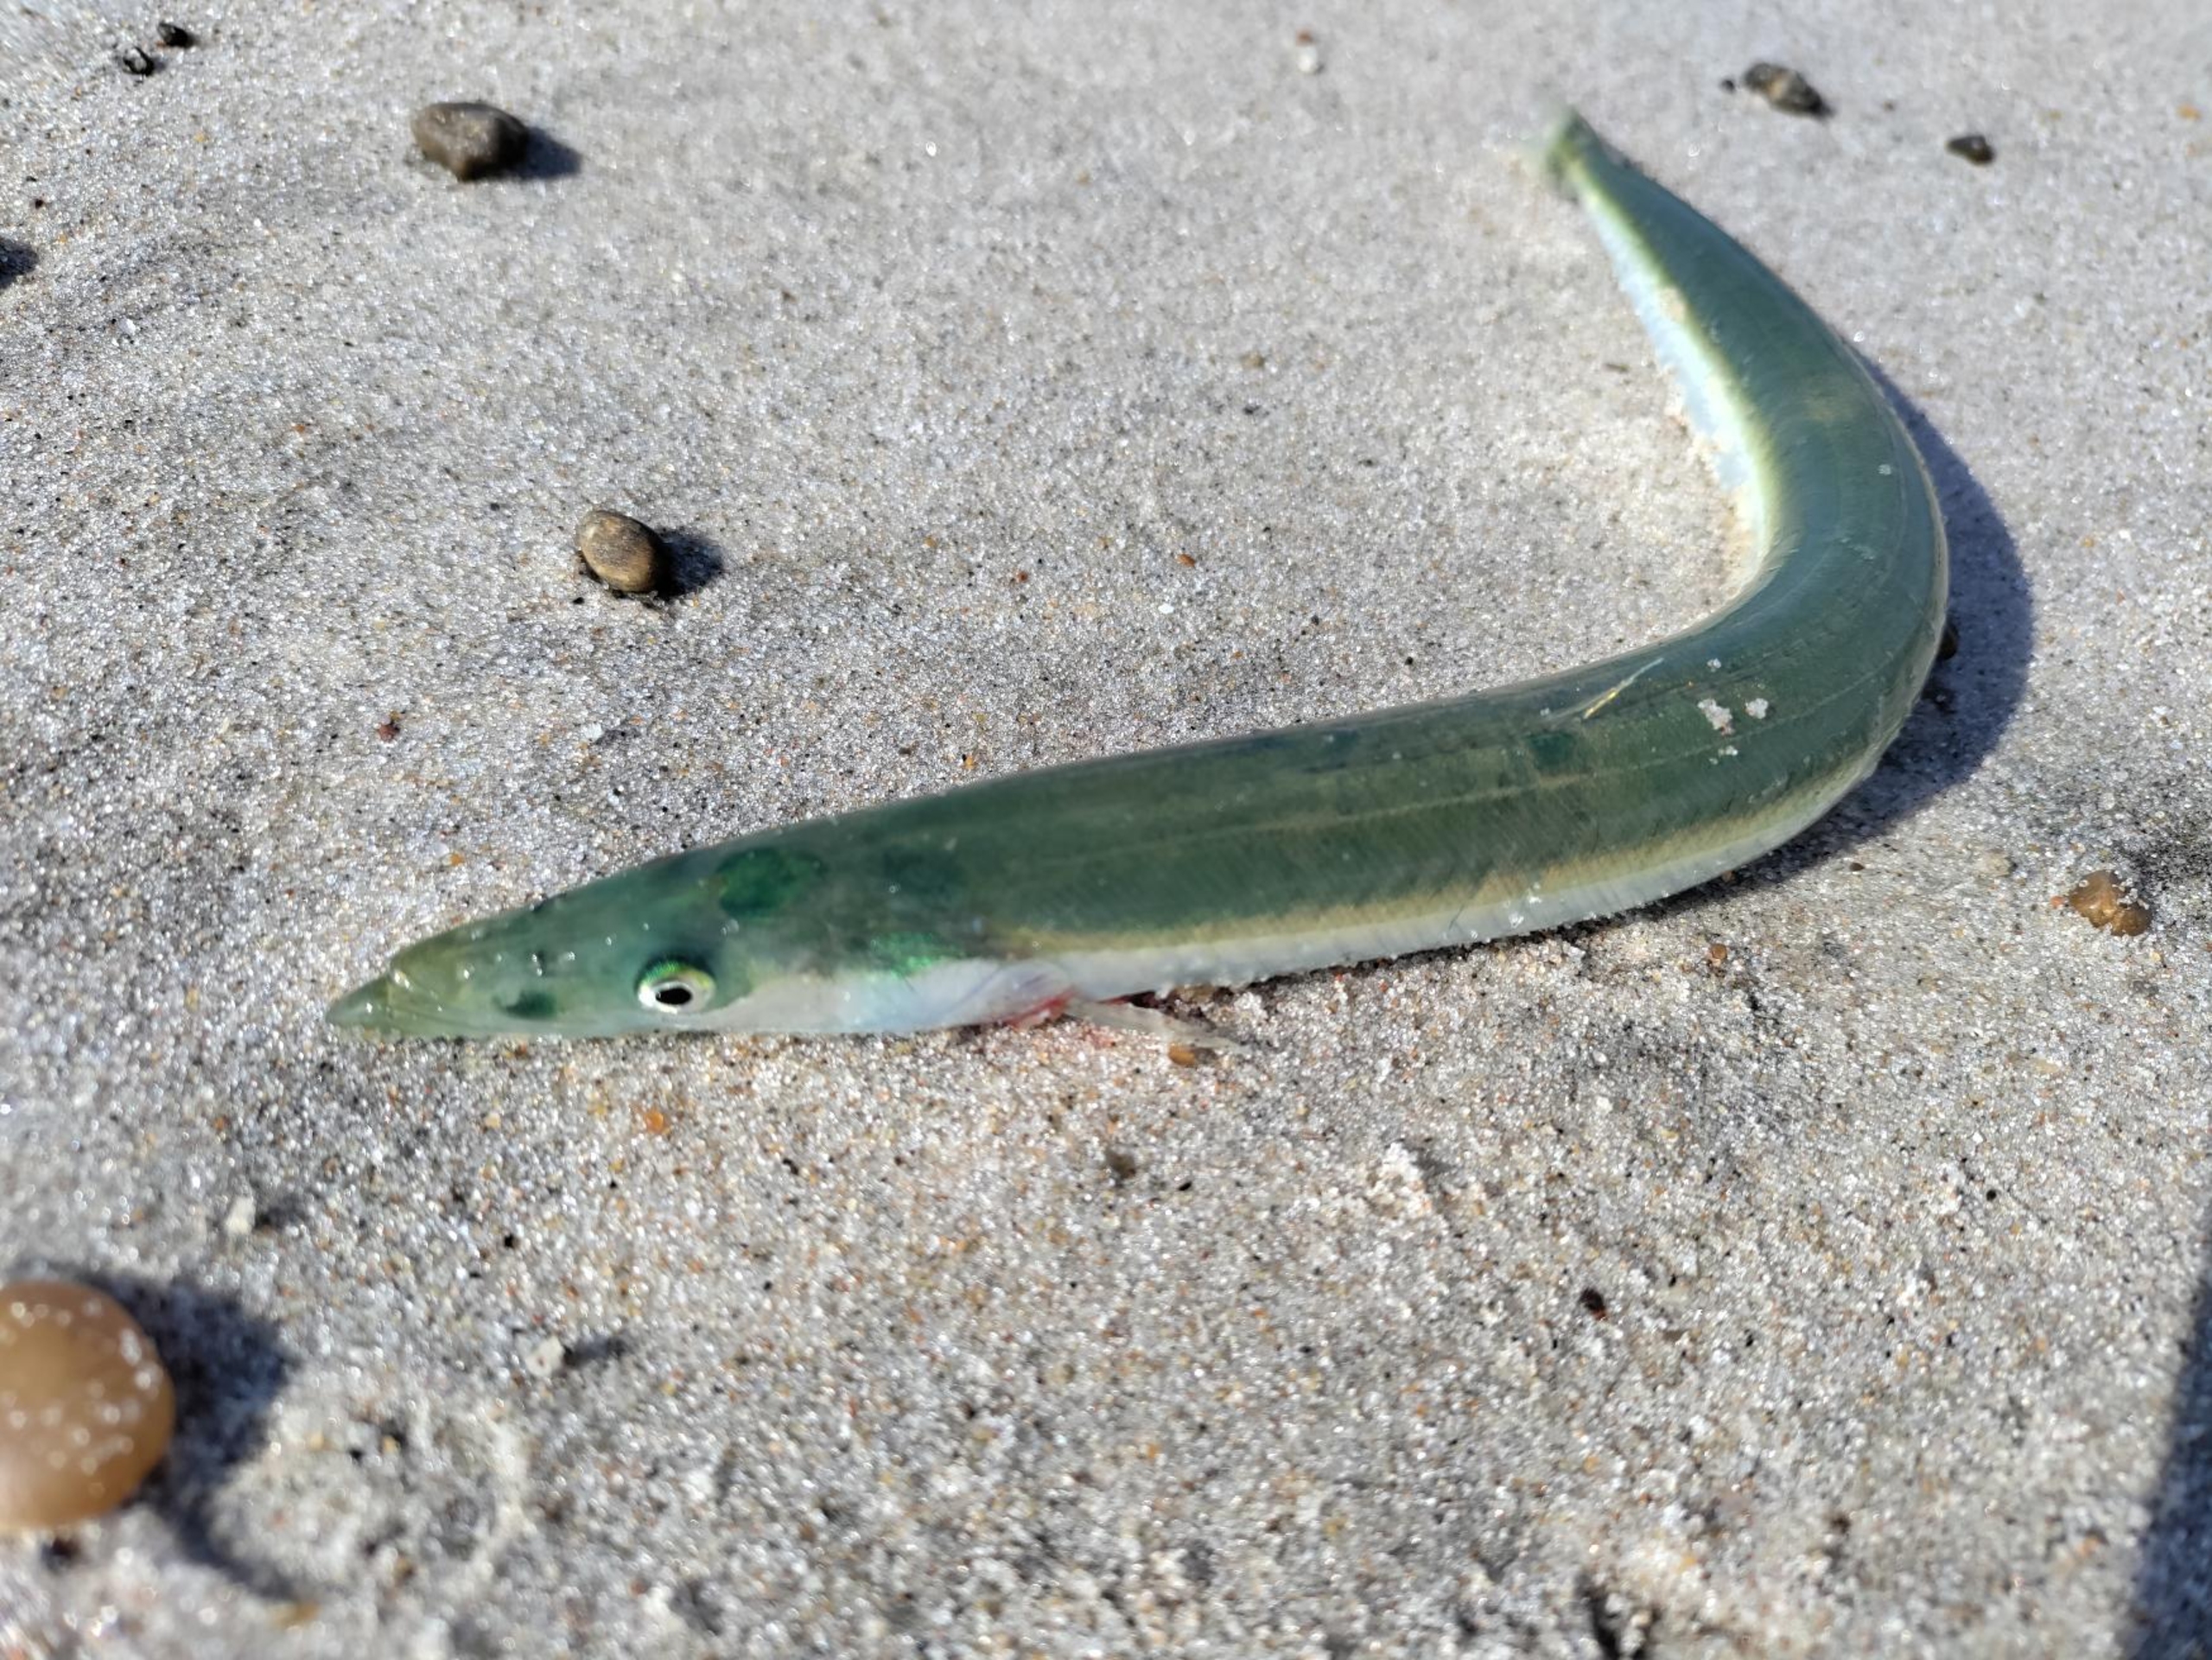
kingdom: Animalia
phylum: Chordata
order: Perciformes
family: Ammodytidae
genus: Hyperoplus
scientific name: Hyperoplus lanceolatus
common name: Plettet tobiskonge
